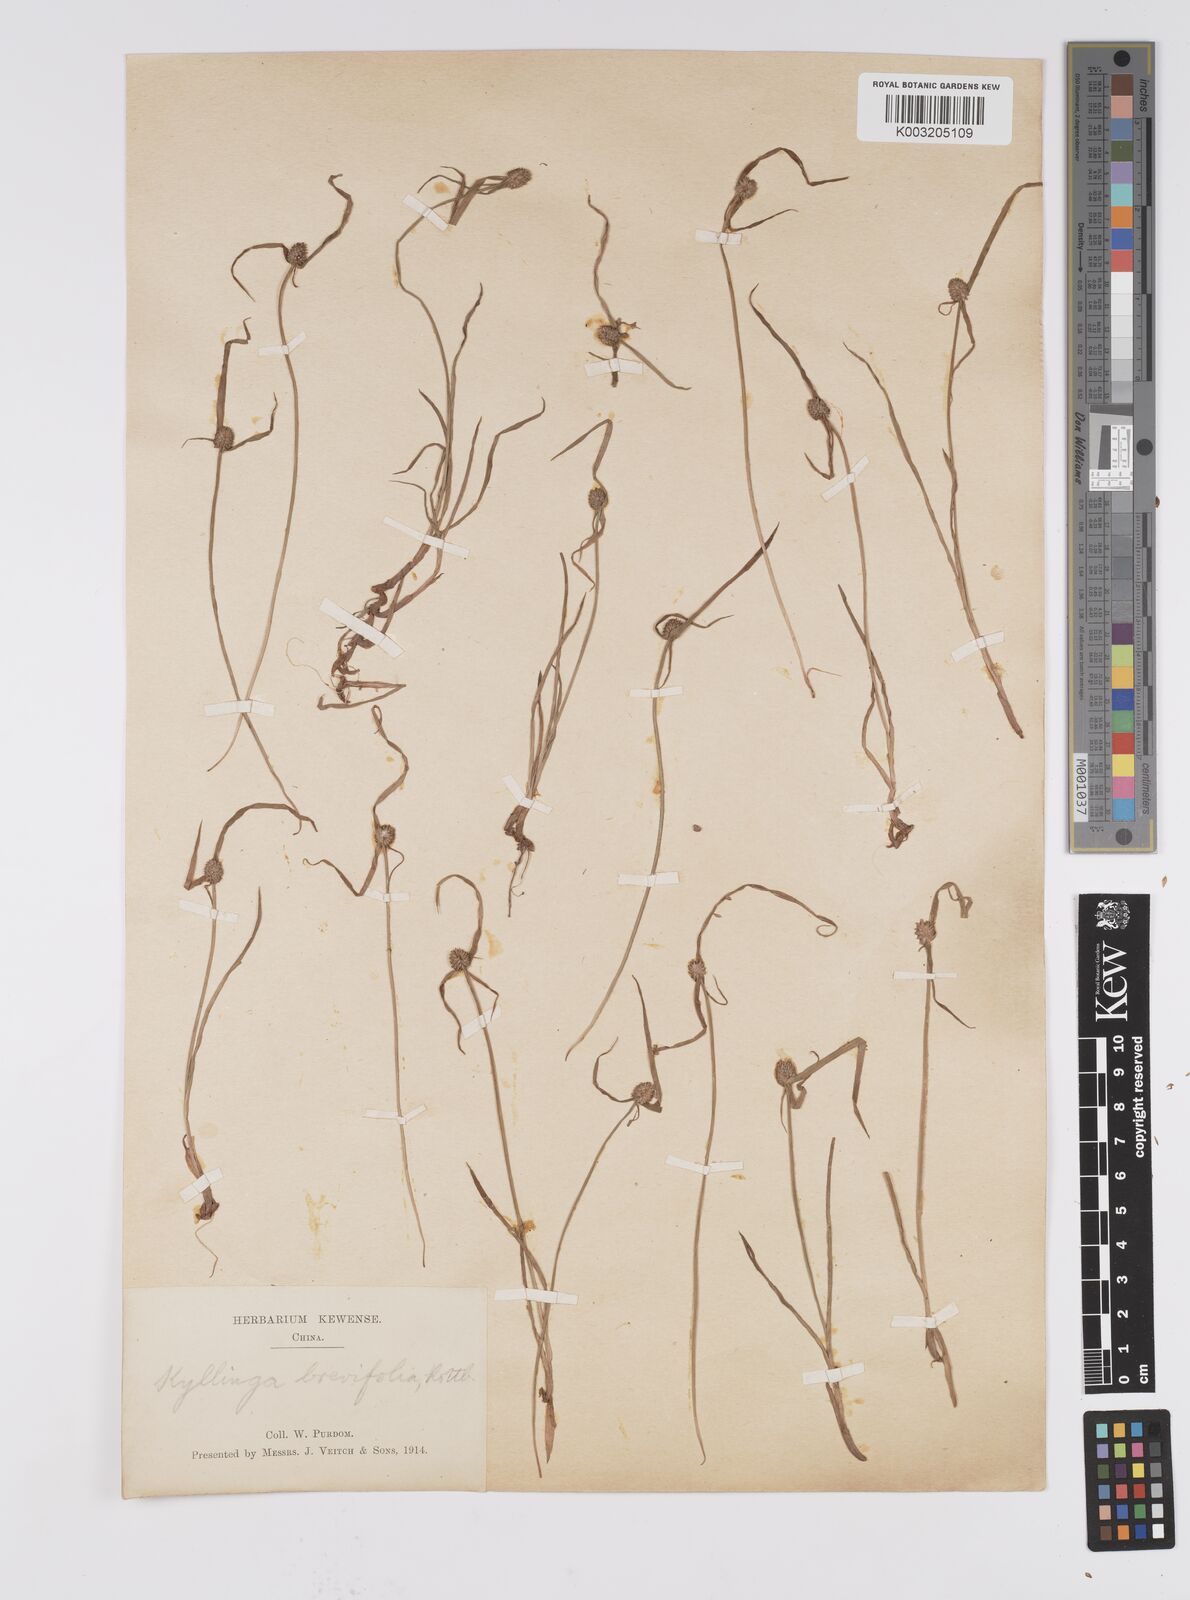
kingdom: Plantae
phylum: Tracheophyta
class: Liliopsida
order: Poales
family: Cyperaceae
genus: Cyperus
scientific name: Cyperus brevifolius
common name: Globe kyllinga
